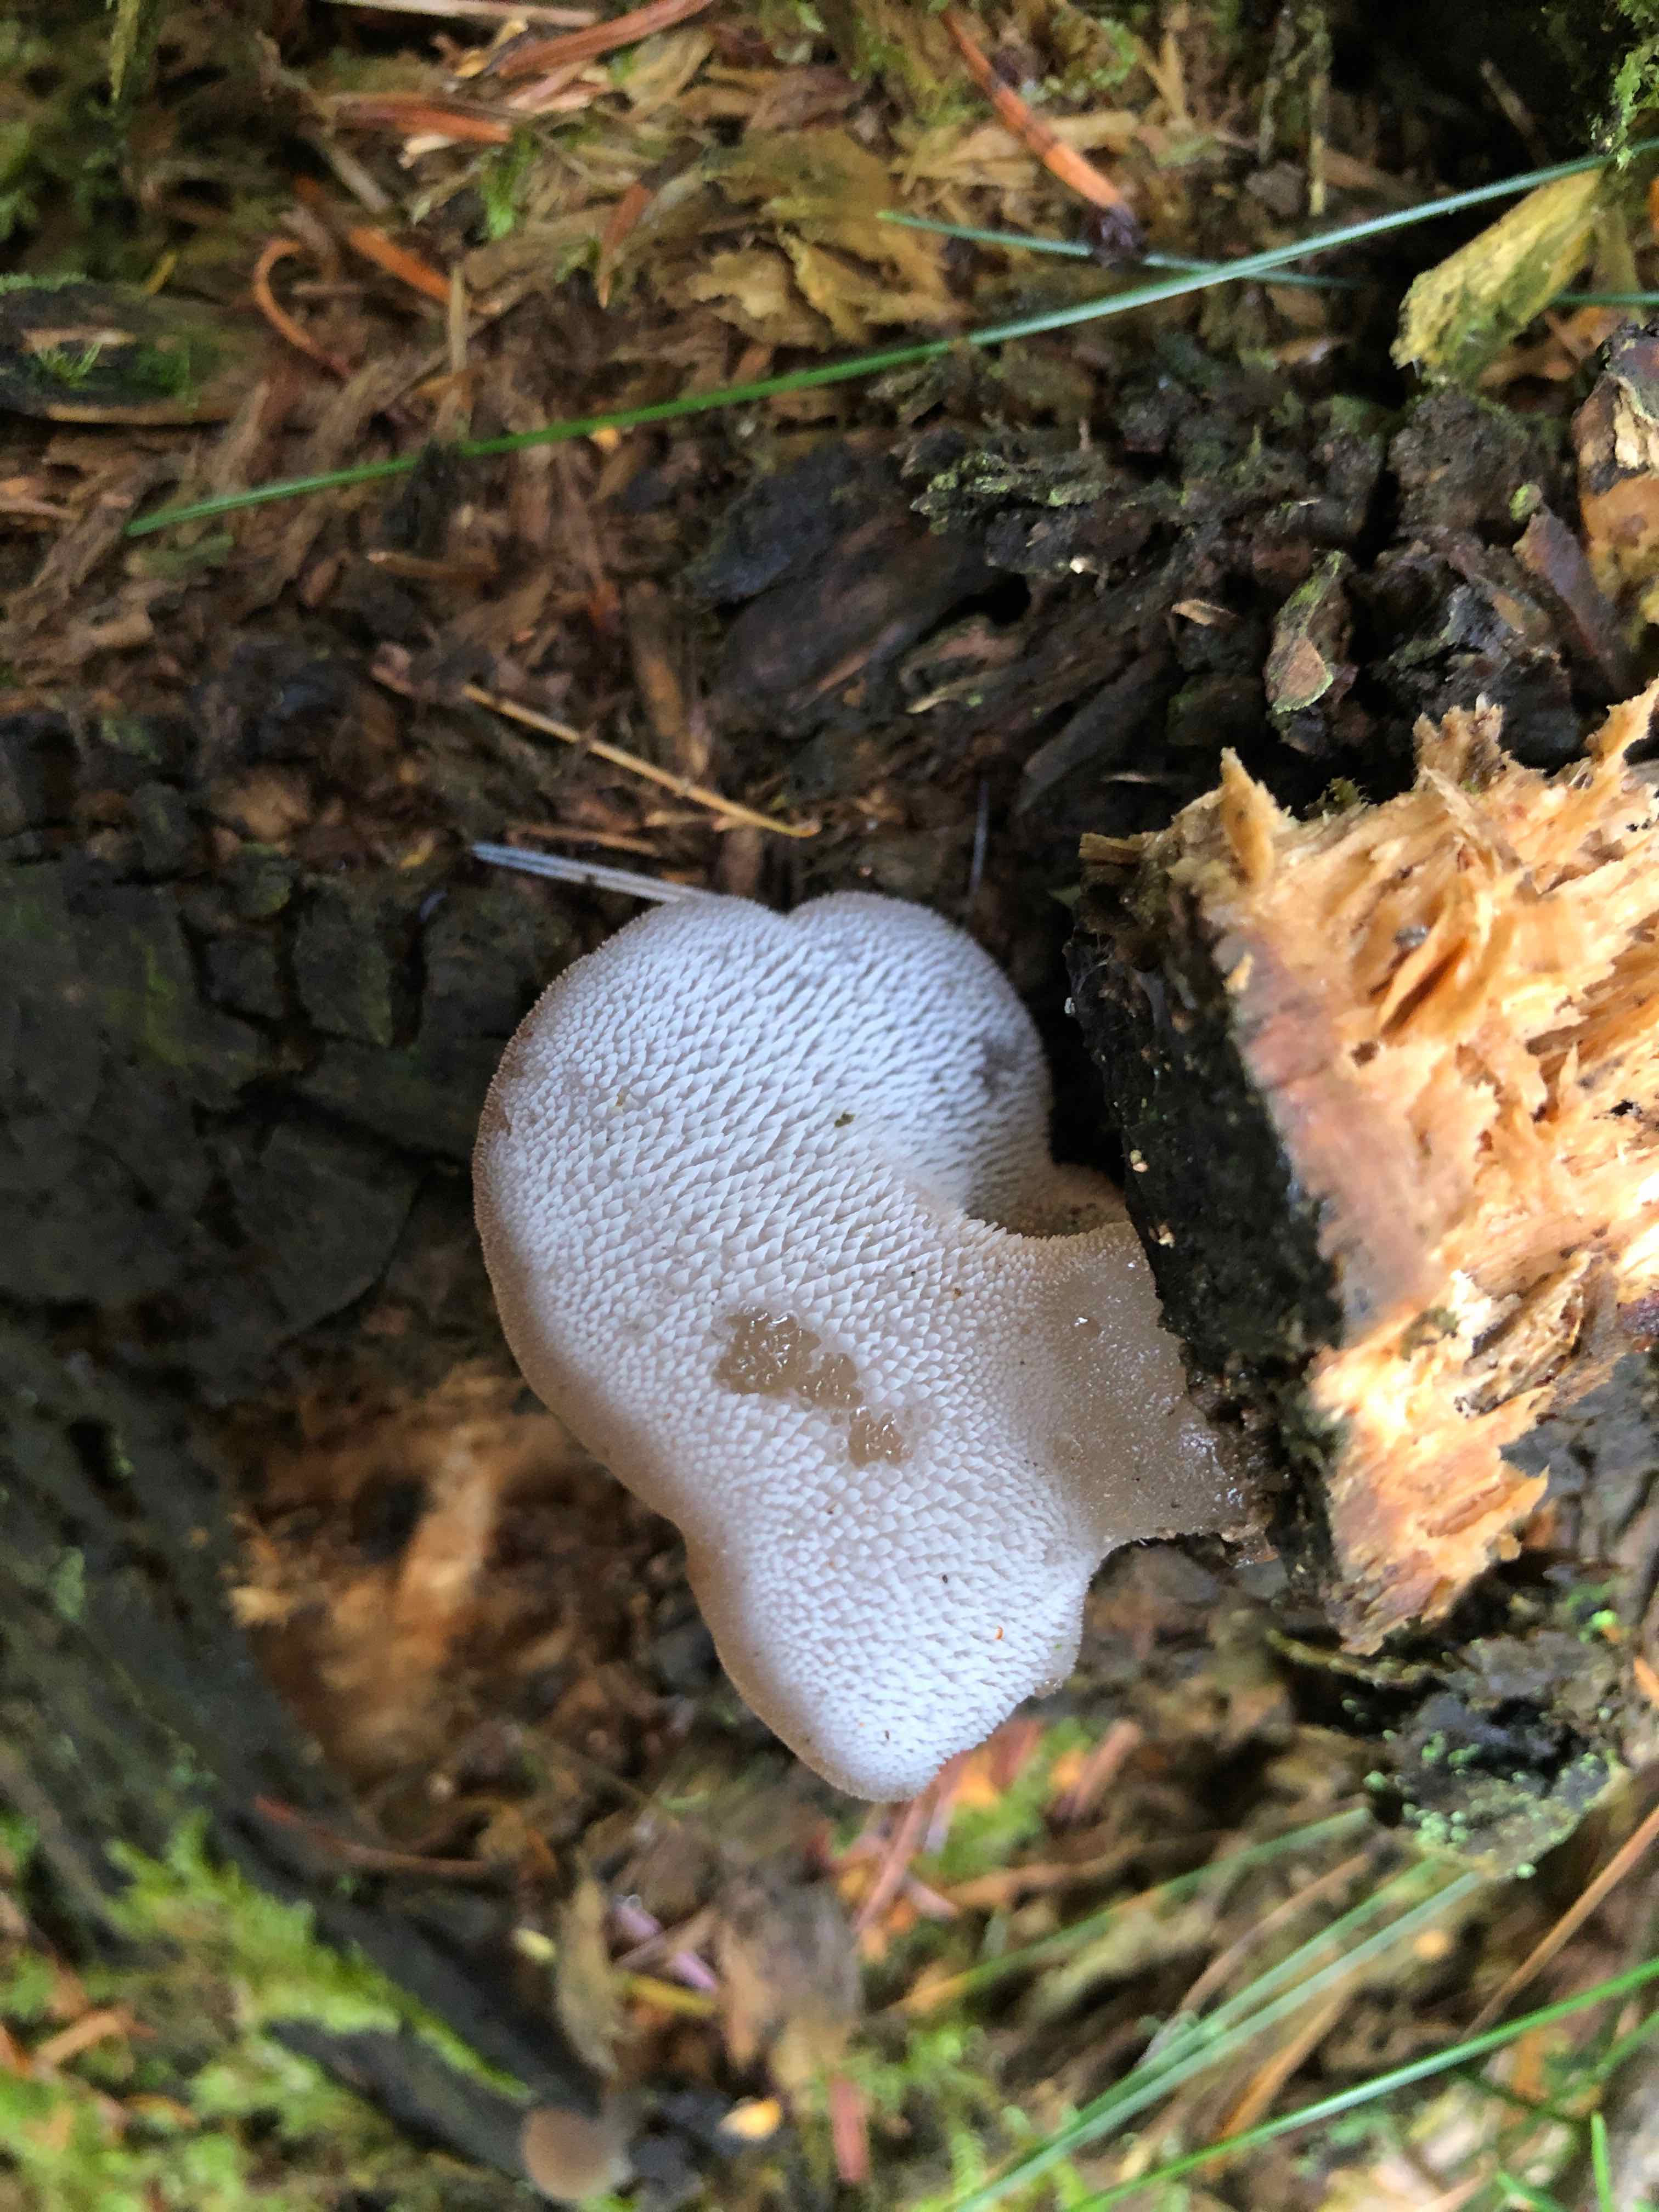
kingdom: Fungi
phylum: Basidiomycota
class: Agaricomycetes
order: Auriculariales
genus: Pseudohydnum
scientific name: Pseudohydnum gelatinosum
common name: bævretand
